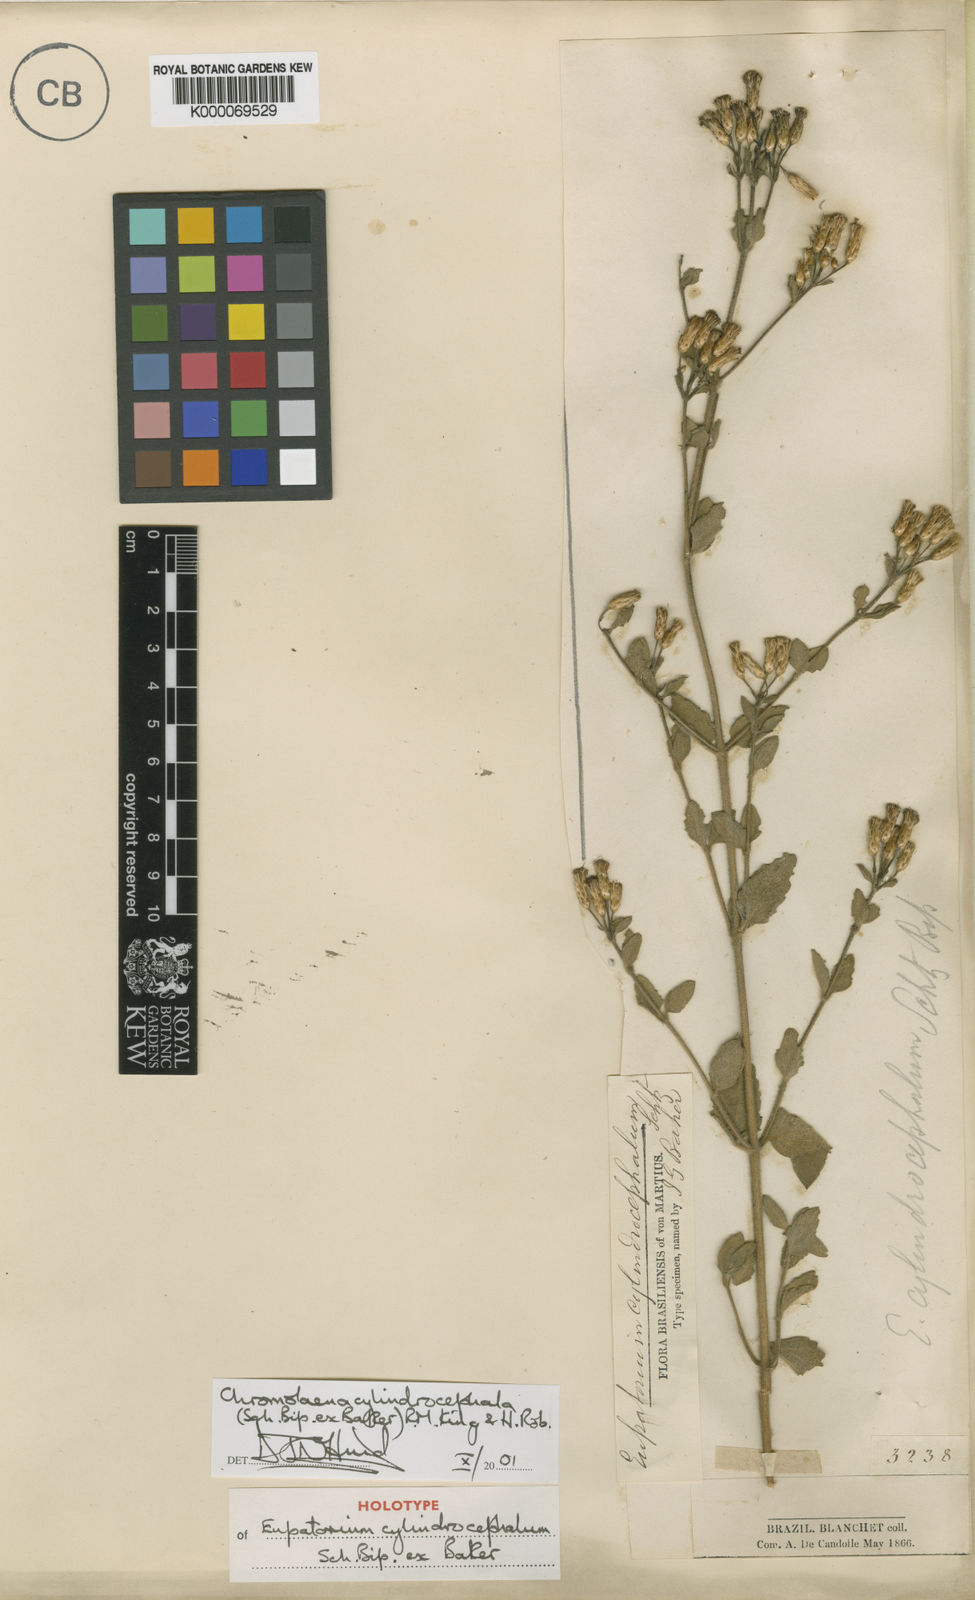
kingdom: Plantae
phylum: Tracheophyta
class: Magnoliopsida
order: Asterales
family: Asteraceae
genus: Chromolaena
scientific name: Chromolaena cylindrocephala
